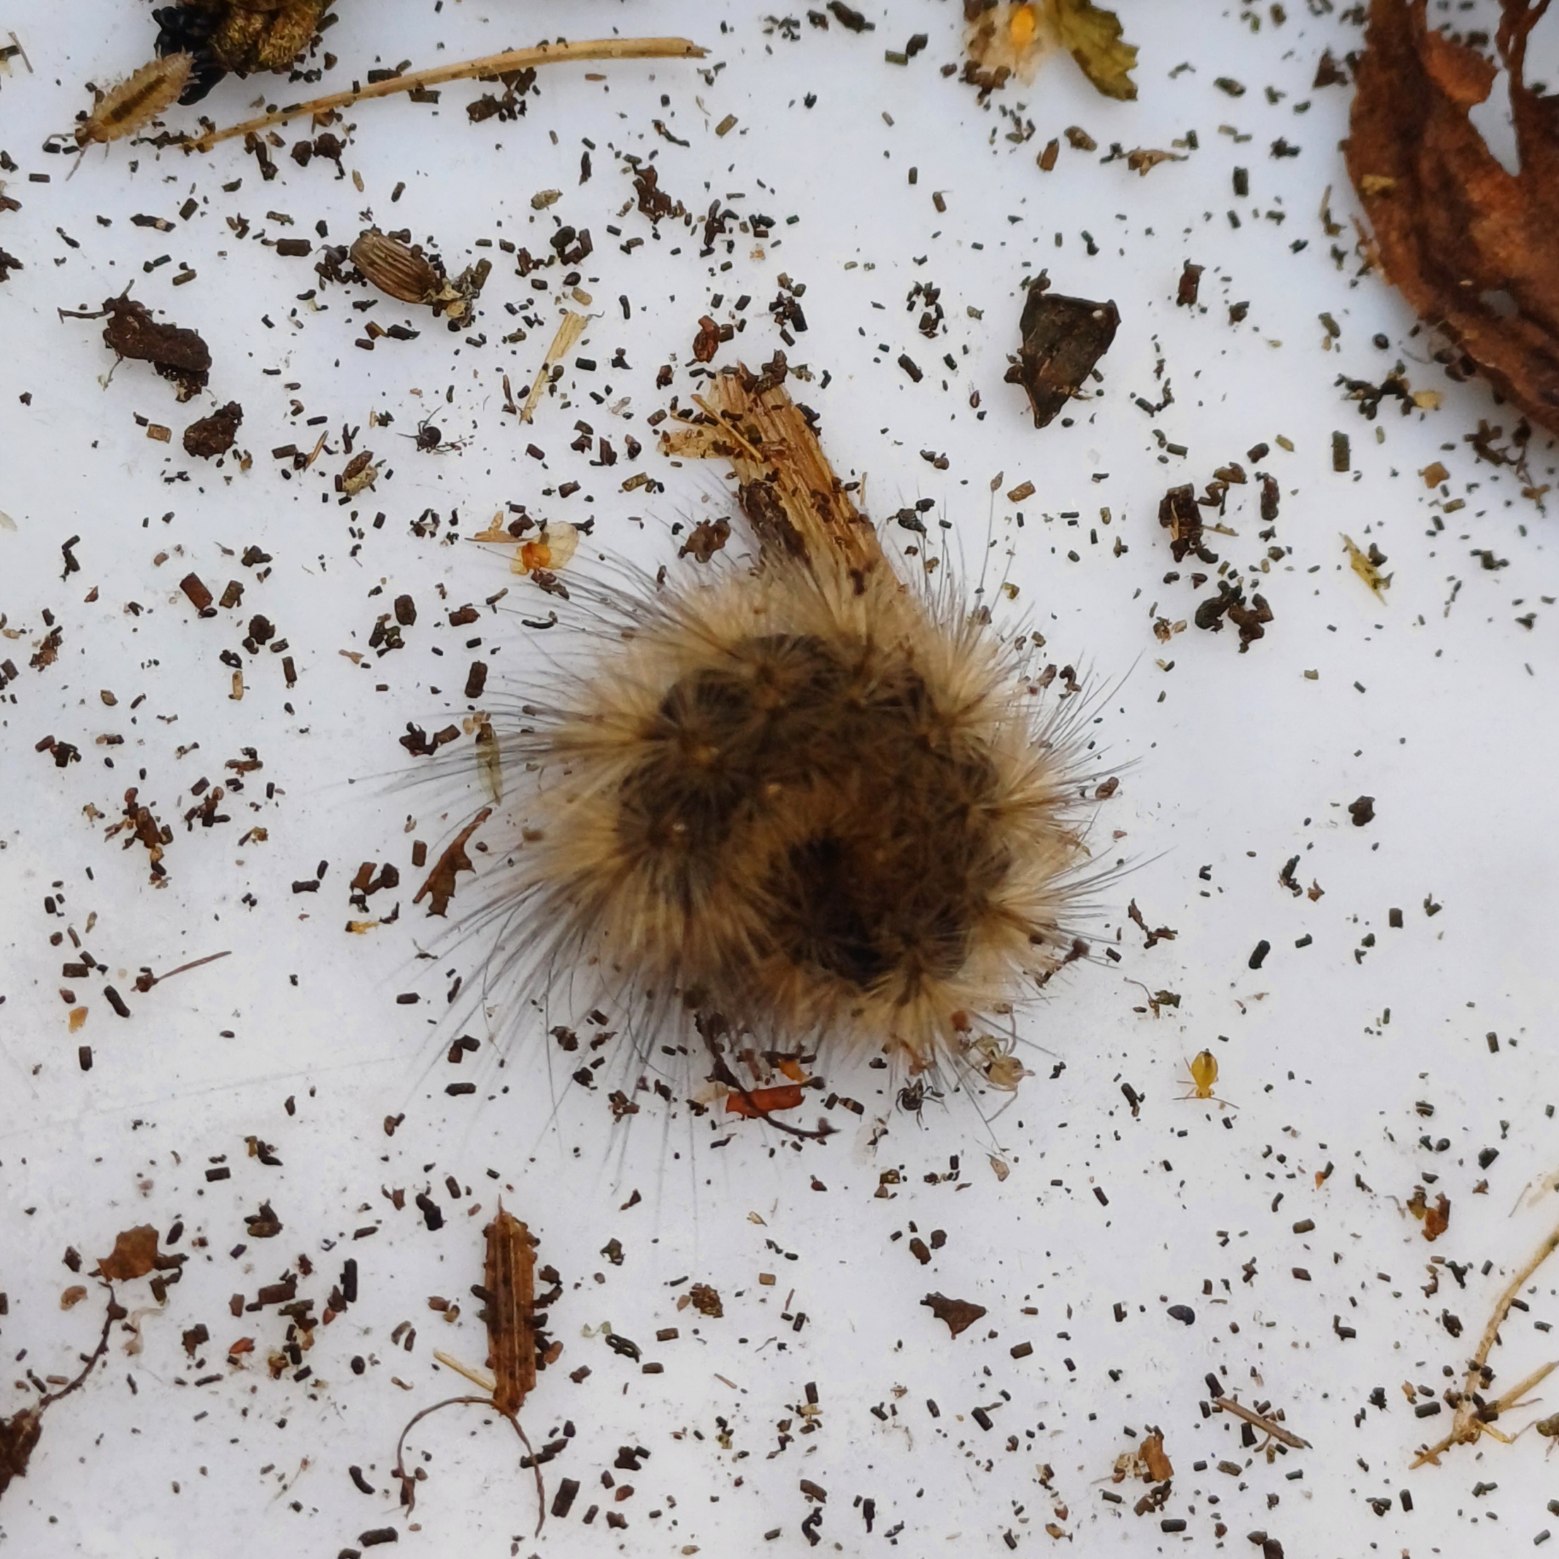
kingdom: Animalia
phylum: Arthropoda
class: Insecta
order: Lepidoptera
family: Erebidae
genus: Phragmatobia
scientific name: Phragmatobia fuliginosa
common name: Kanelbjørn
